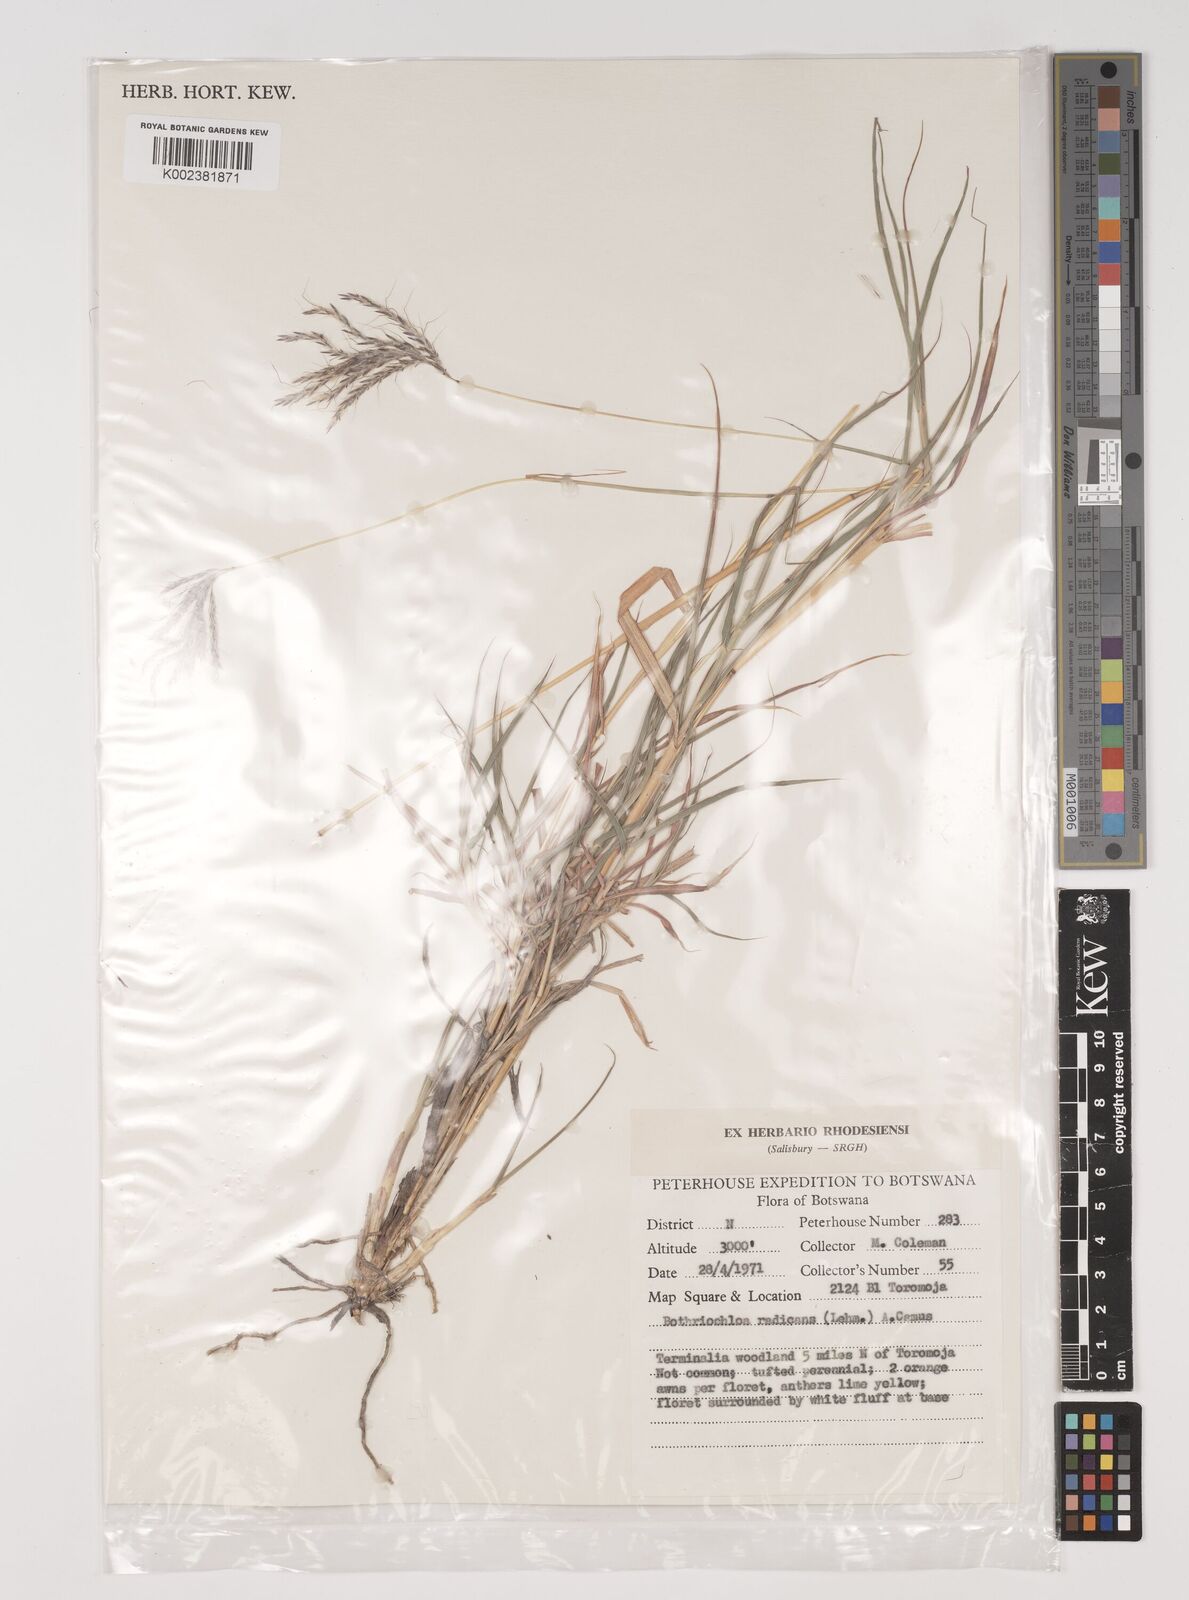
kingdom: Plantae
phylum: Tracheophyta
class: Liliopsida
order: Poales
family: Poaceae
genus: Bothriochloa
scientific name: Bothriochloa radicans
